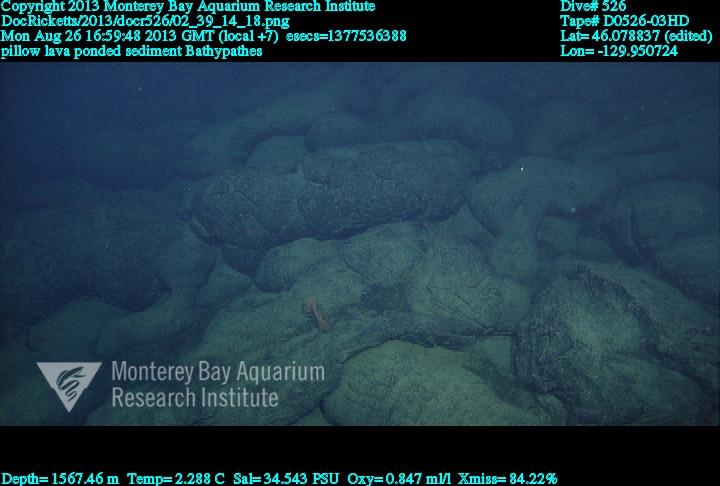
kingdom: Animalia
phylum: Cnidaria
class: Anthozoa
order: Antipatharia
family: Schizopathidae
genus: Bathypathes
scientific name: Bathypathes
